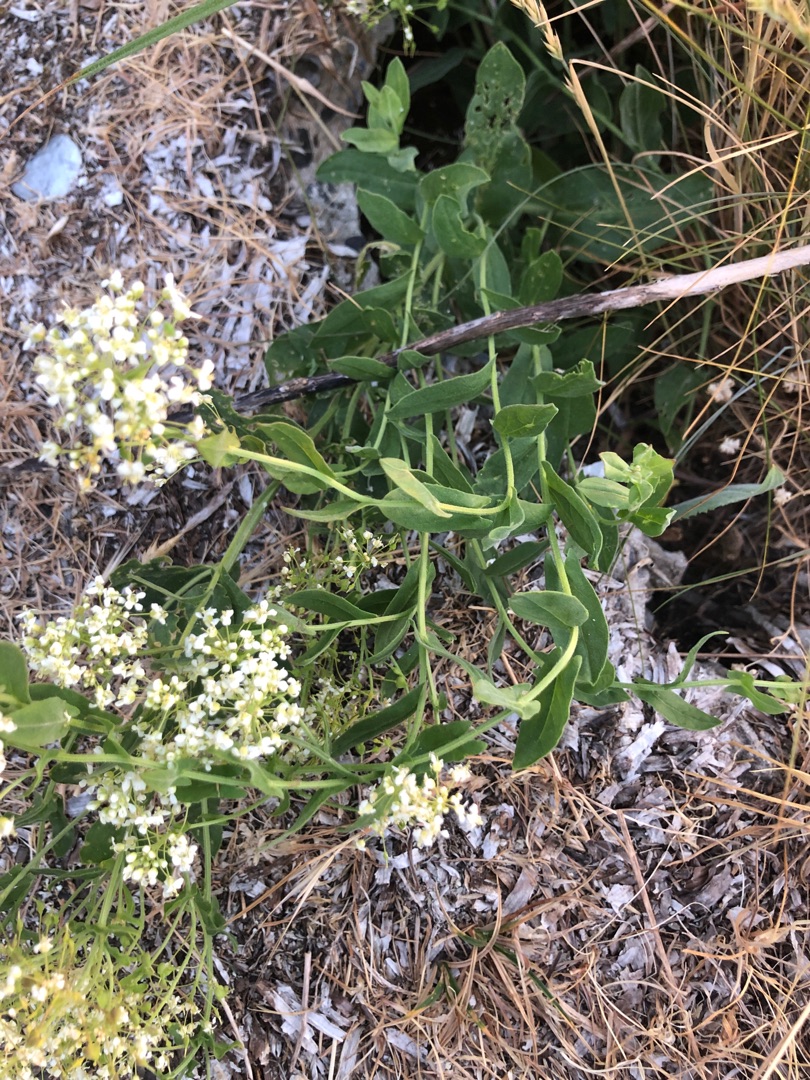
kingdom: Plantae
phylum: Tracheophyta
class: Magnoliopsida
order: Brassicales
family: Brassicaceae
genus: Lepidium
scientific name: Lepidium draba
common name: Hjerte-karse
